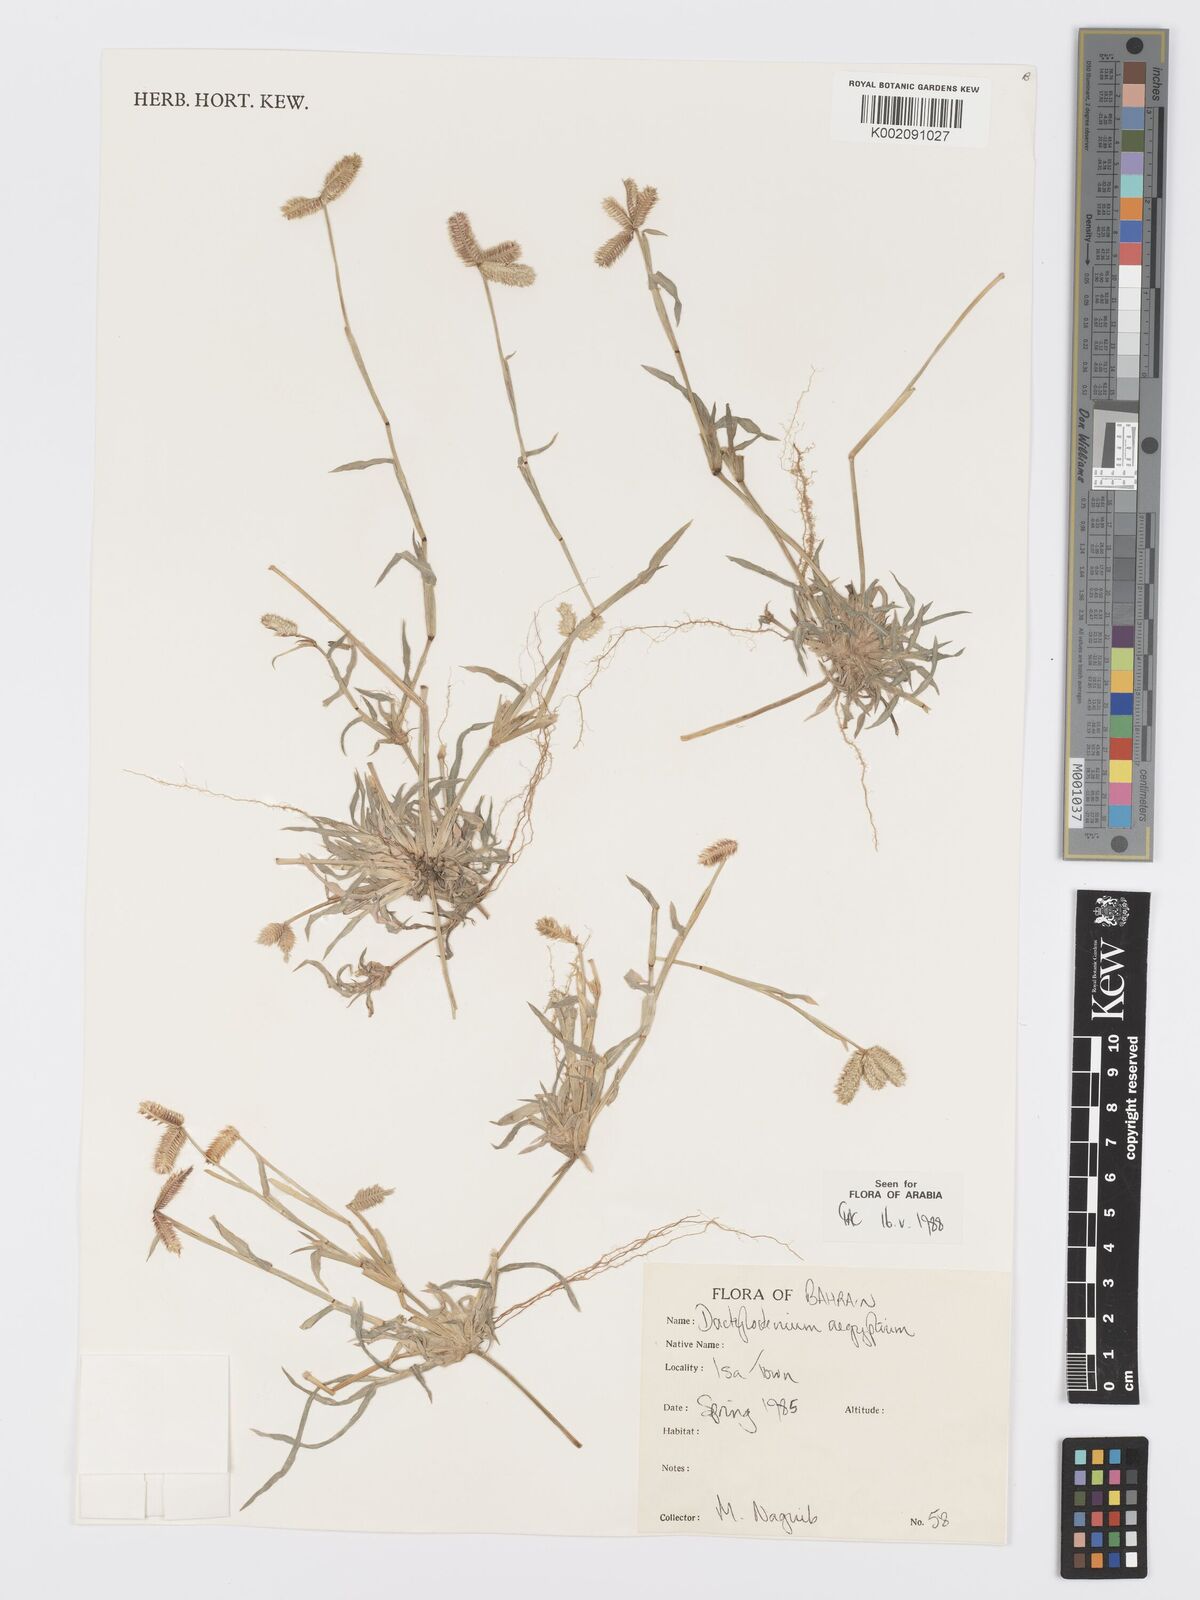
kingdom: Plantae
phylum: Tracheophyta
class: Liliopsida
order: Poales
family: Poaceae
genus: Dactyloctenium
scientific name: Dactyloctenium aegyptium
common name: Egyptian grass
